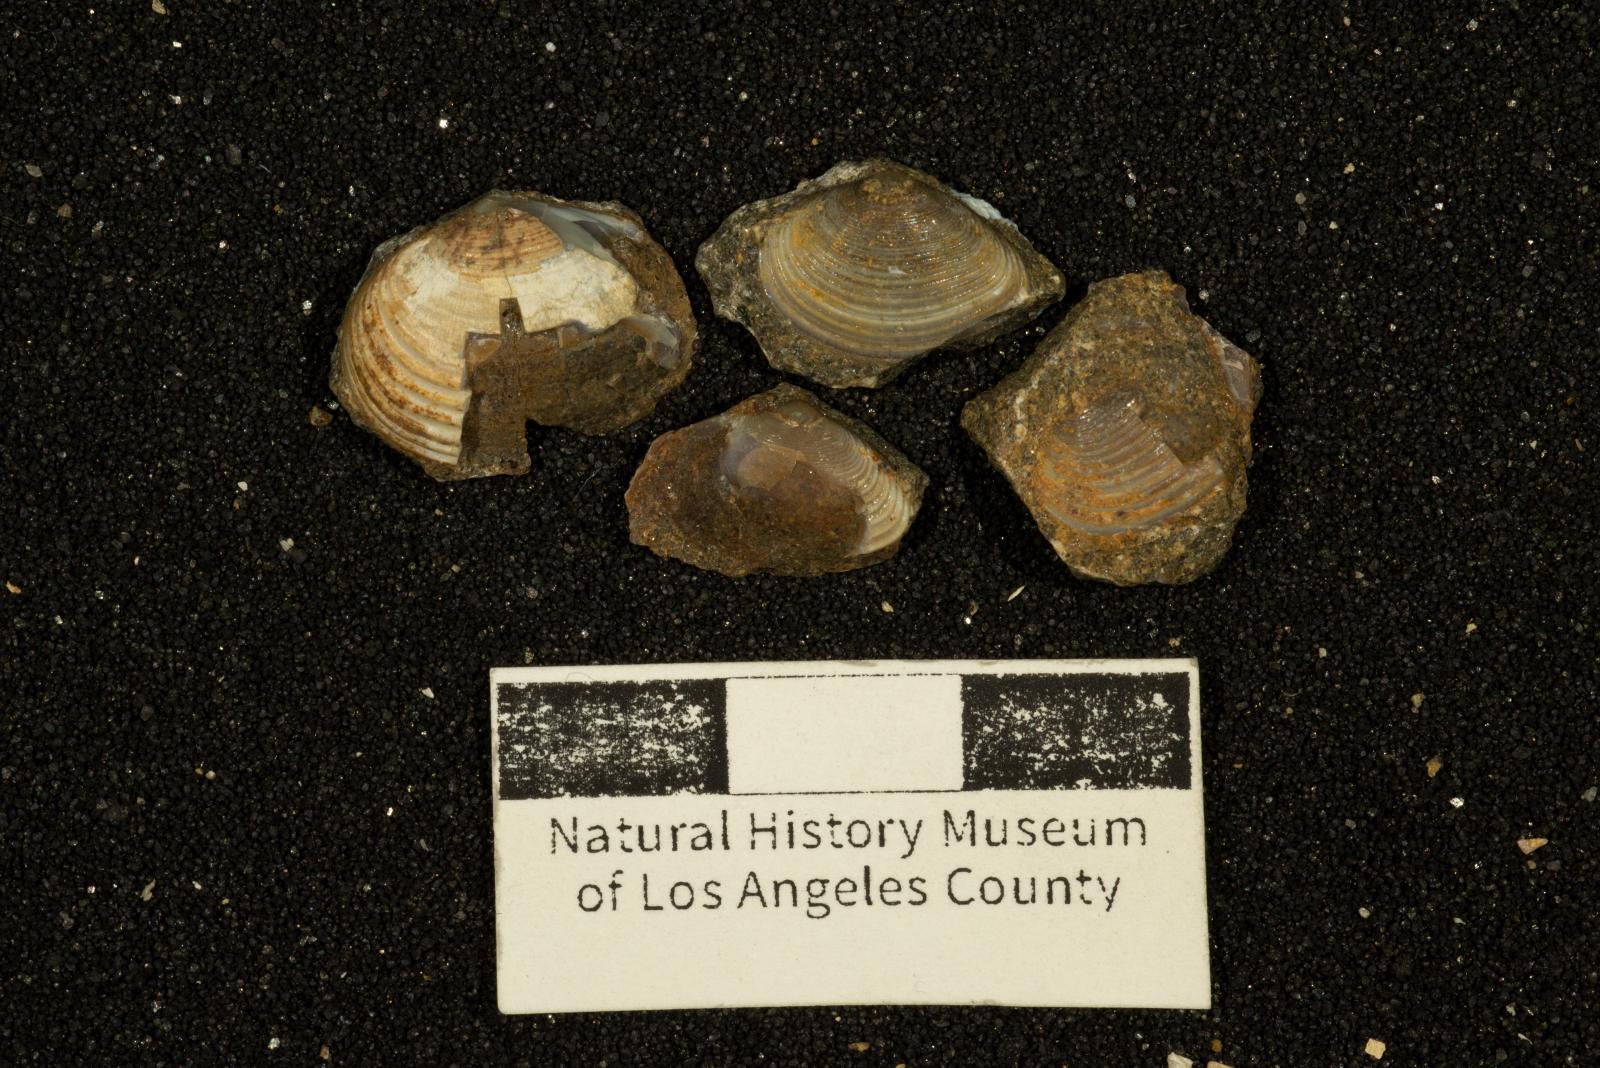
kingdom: Animalia
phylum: Mollusca
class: Bivalvia
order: Lucinida
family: Lucinidae
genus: Lucina
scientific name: Lucina
